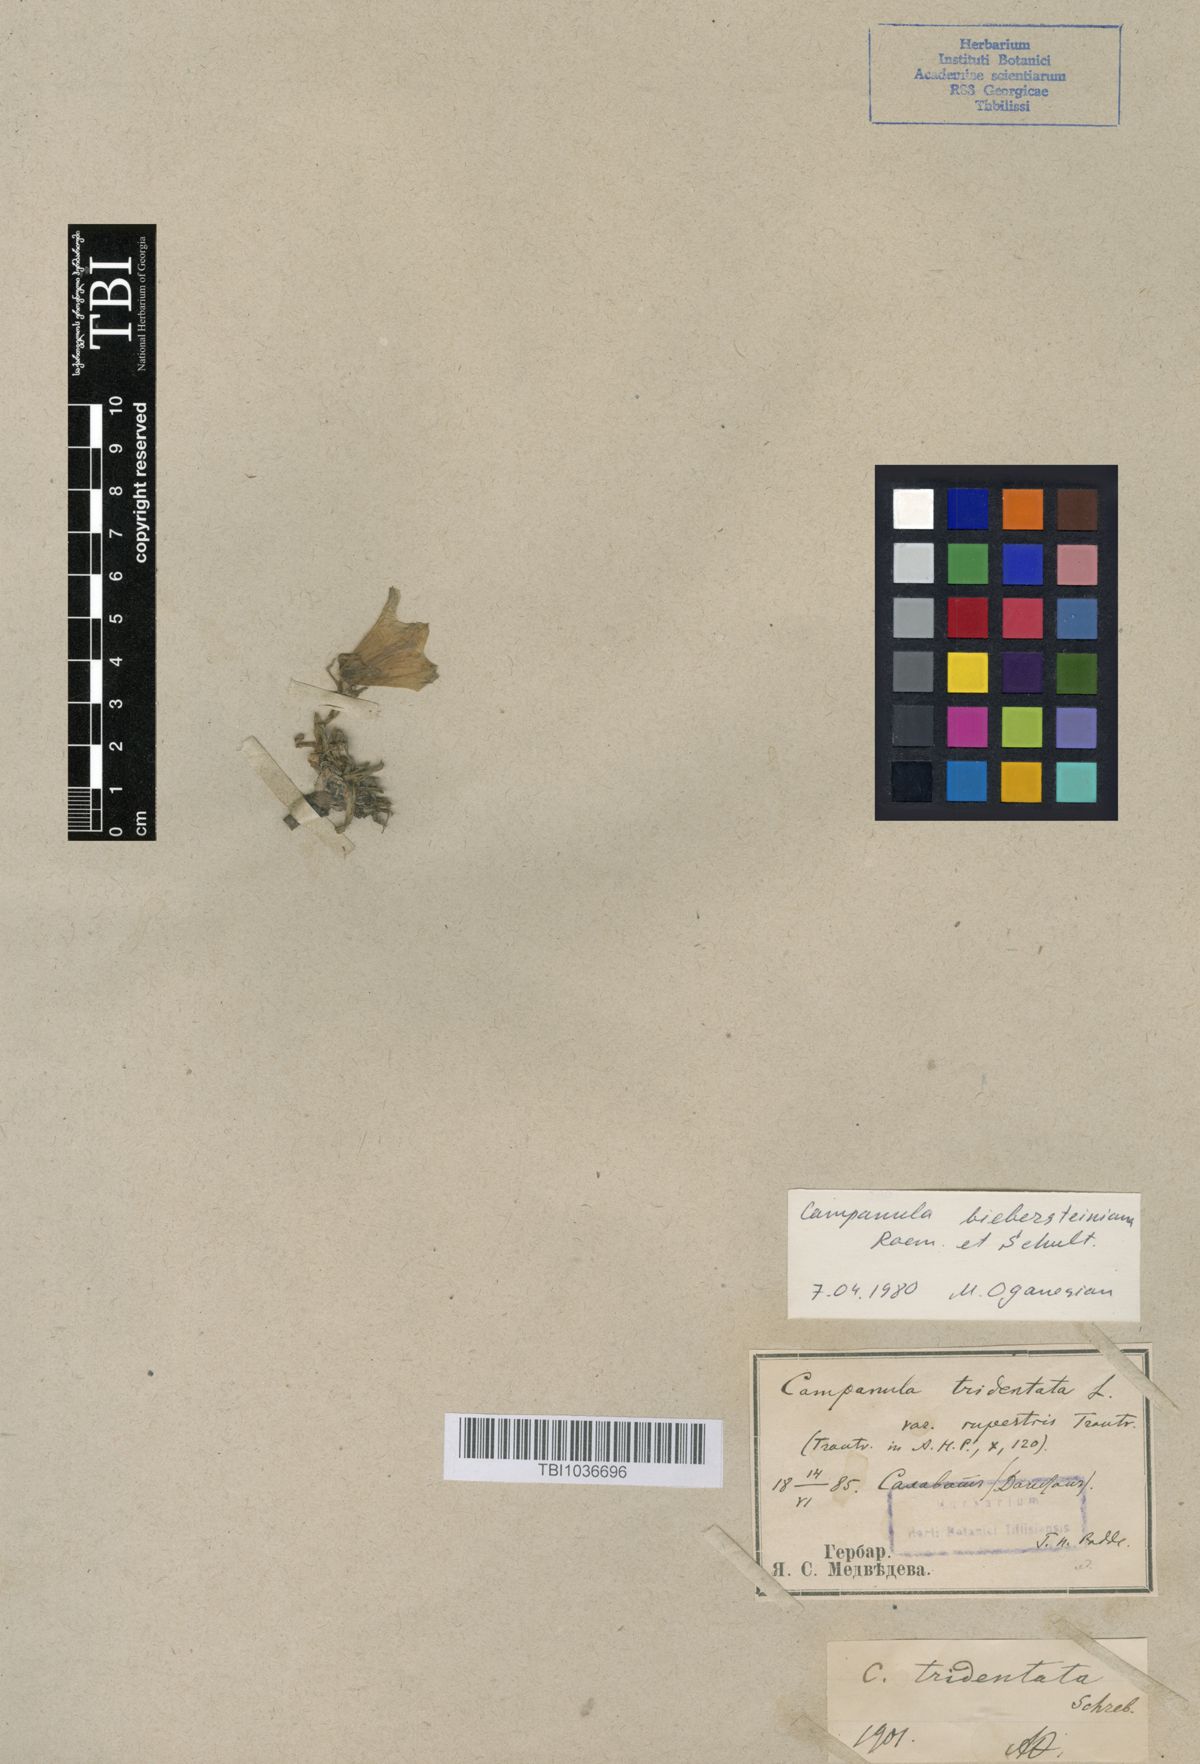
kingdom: Plantae
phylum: Tracheophyta
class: Magnoliopsida
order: Asterales
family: Campanulaceae
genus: Campanula
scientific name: Campanula tridentata
